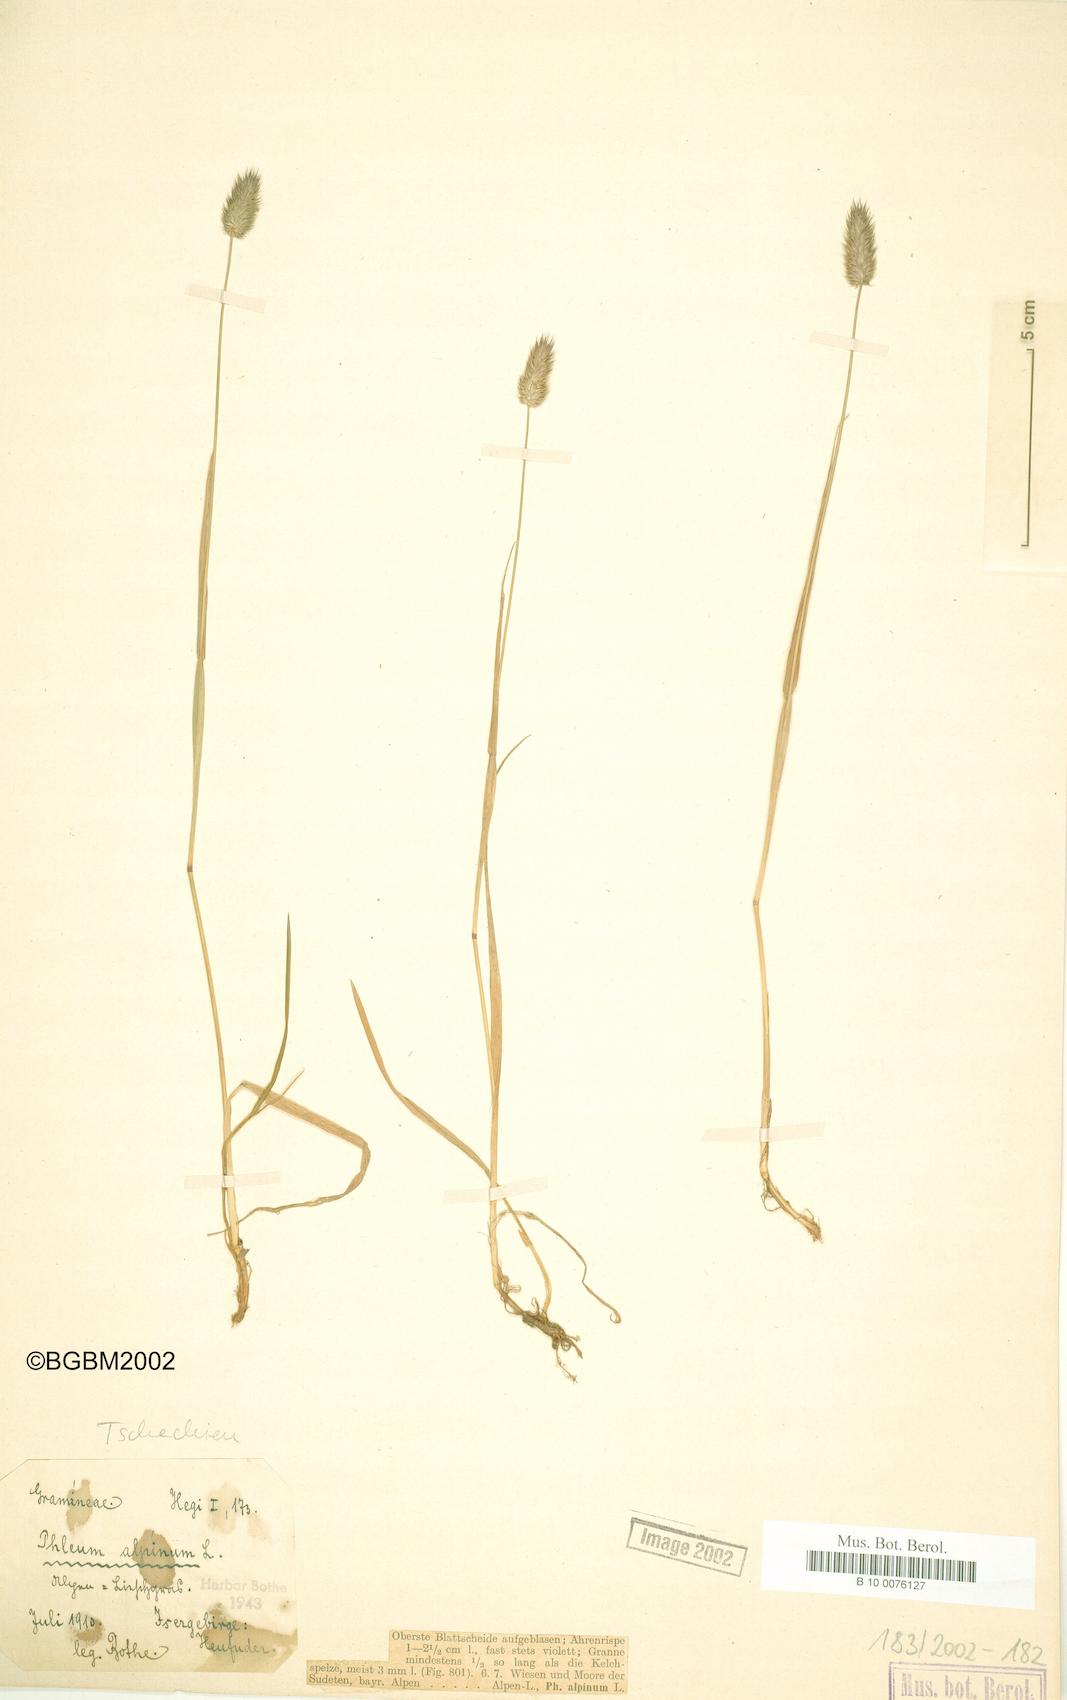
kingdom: Plantae
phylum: Tracheophyta
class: Liliopsida
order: Poales
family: Poaceae
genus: Phleum
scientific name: Phleum alpinum
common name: Alpine cat's-tail
